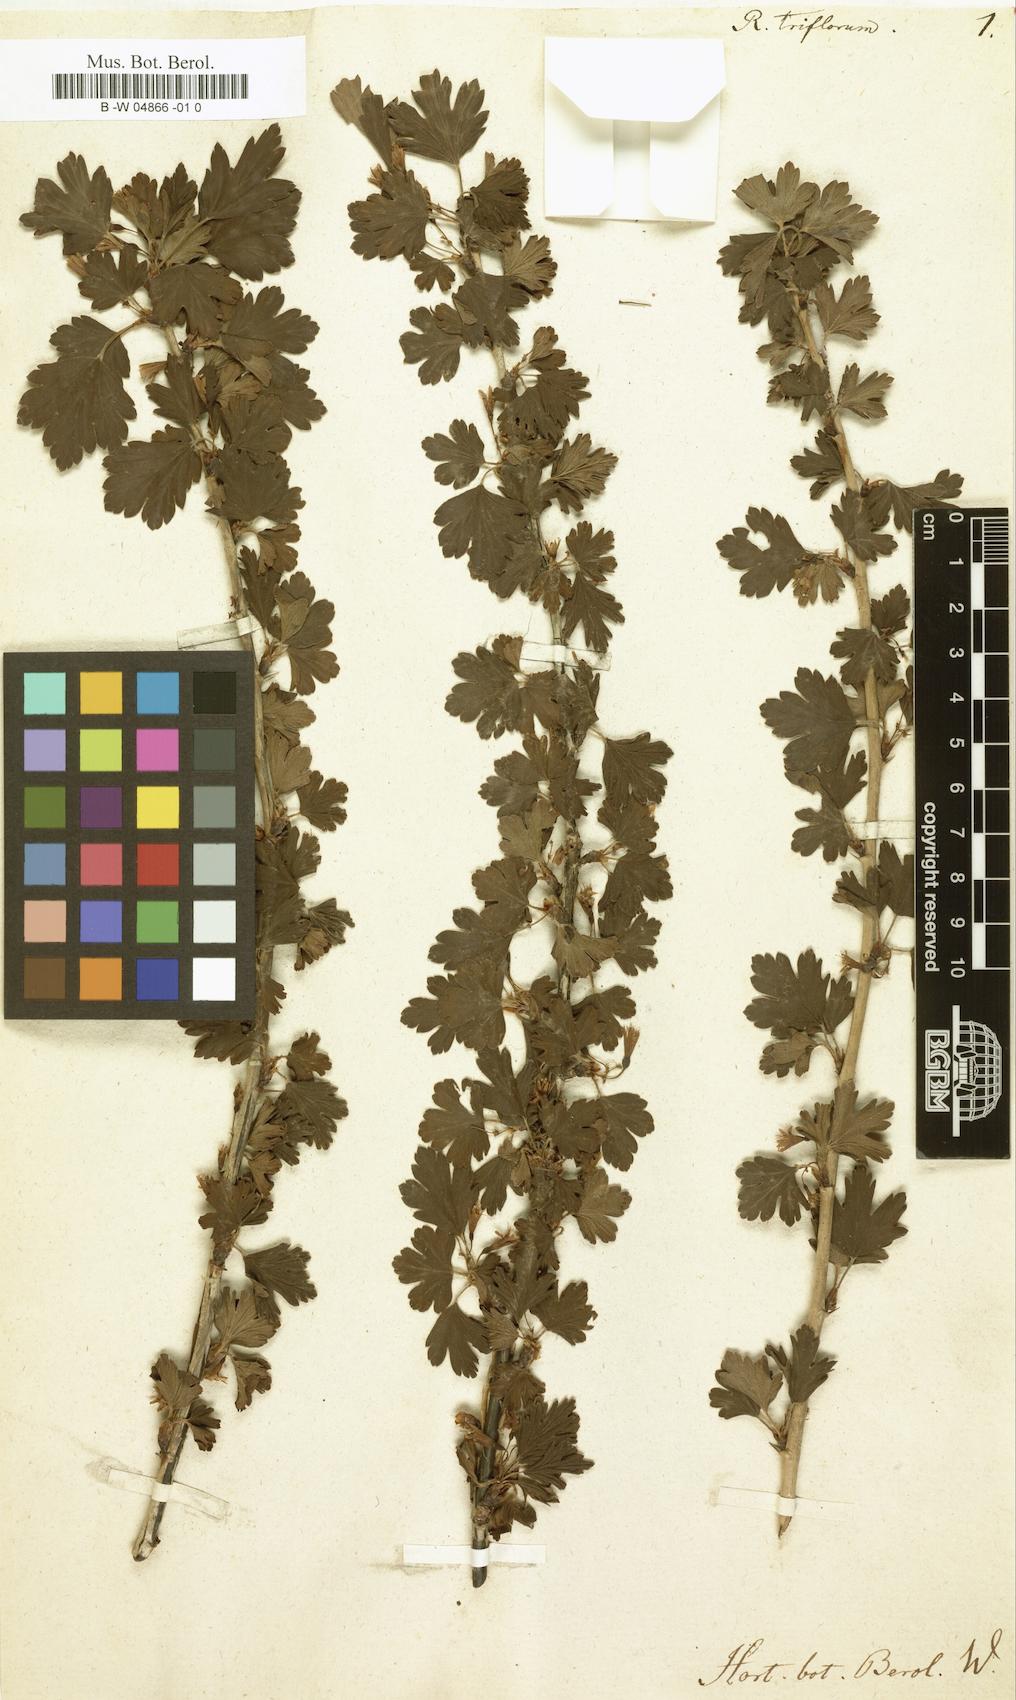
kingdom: Plantae
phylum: Tracheophyta
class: Magnoliopsida
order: Saxifragales
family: Grossulariaceae
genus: Ribes
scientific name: Ribes
